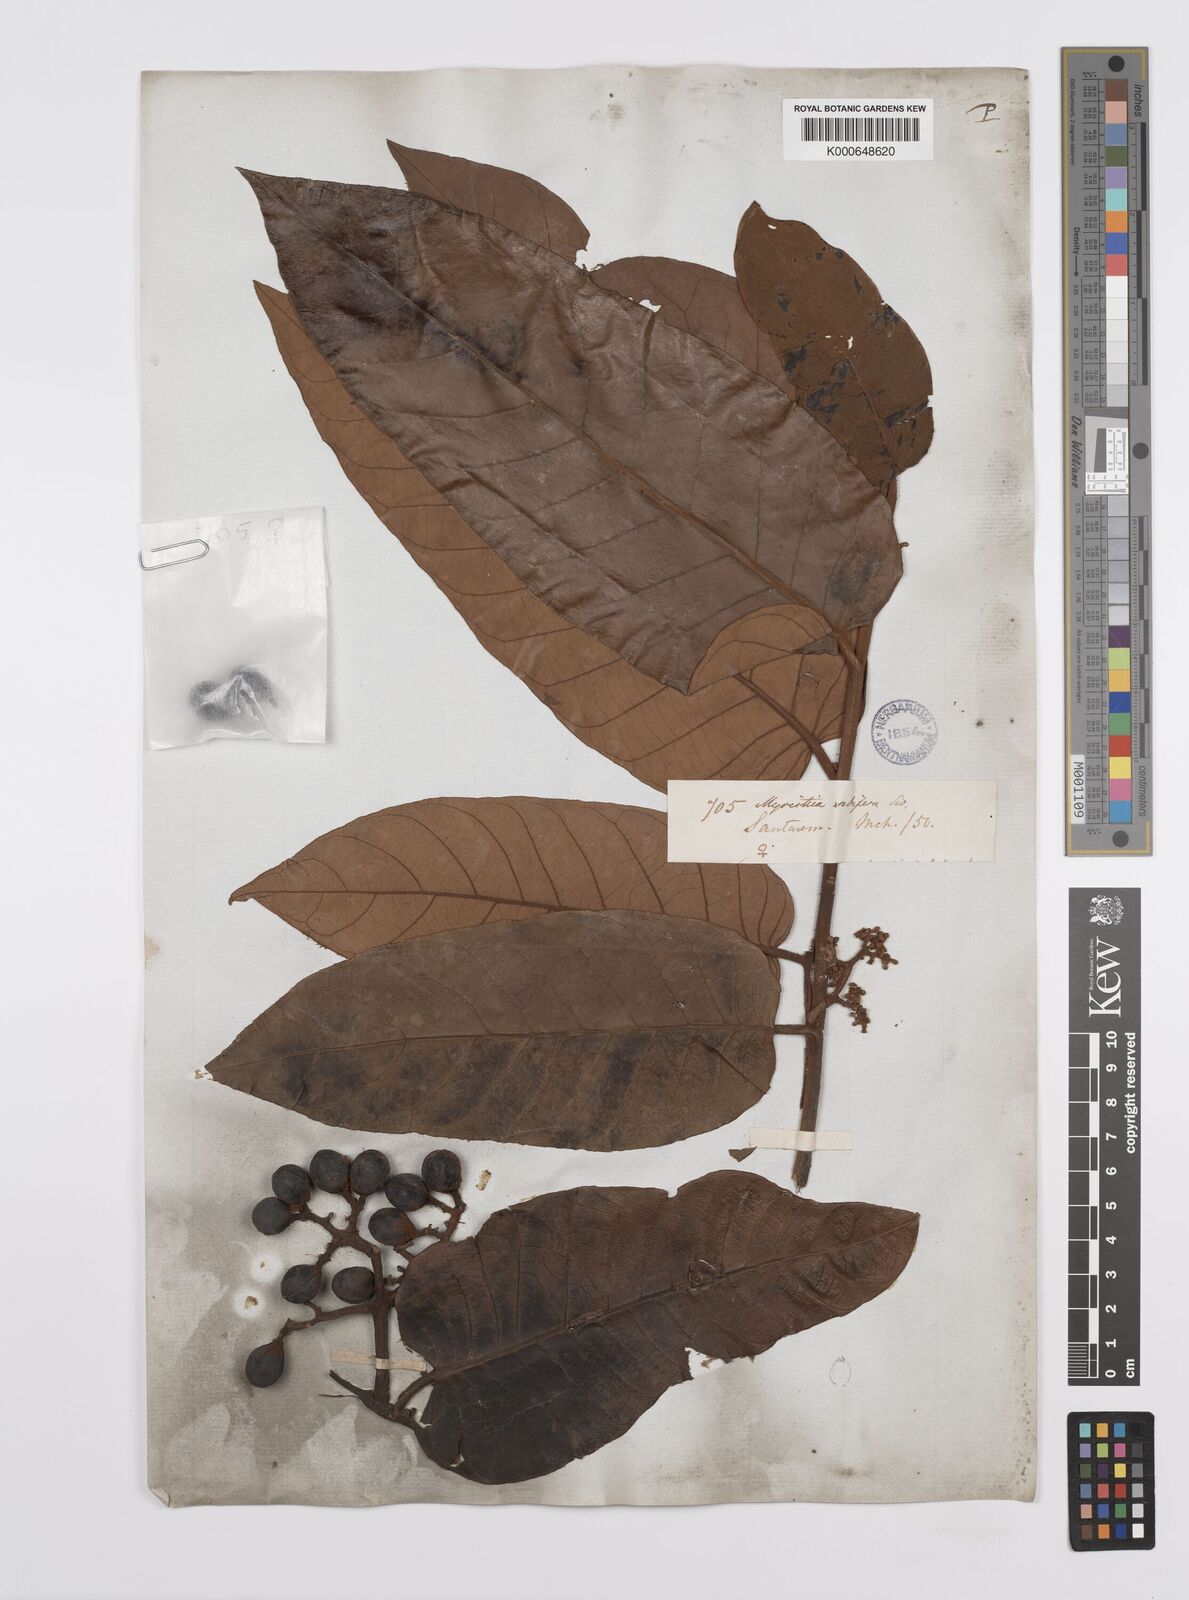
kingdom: Plantae
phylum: Tracheophyta
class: Magnoliopsida
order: Magnoliales
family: Myristicaceae
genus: Virola
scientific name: Virola sebifera
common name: Red ucuuba
